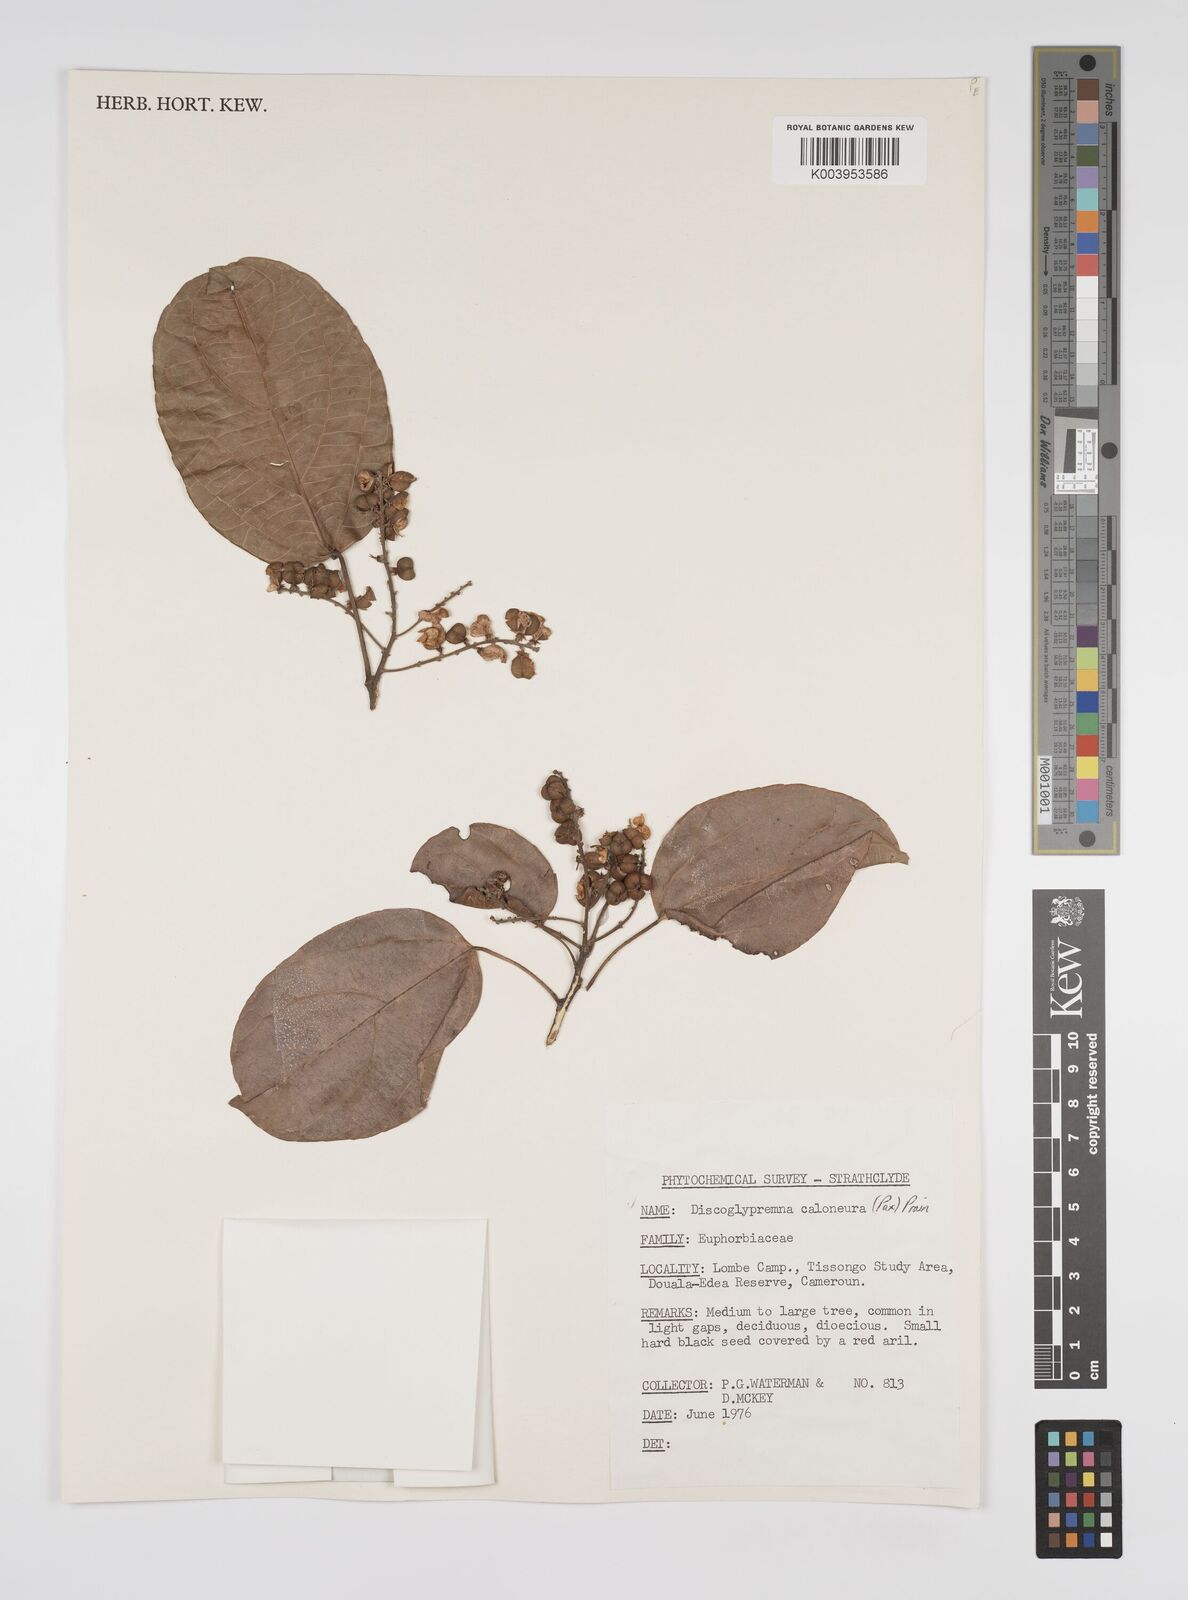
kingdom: Plantae
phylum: Tracheophyta
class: Magnoliopsida
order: Malpighiales
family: Euphorbiaceae
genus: Discoglypremna
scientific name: Discoglypremna caloneura
